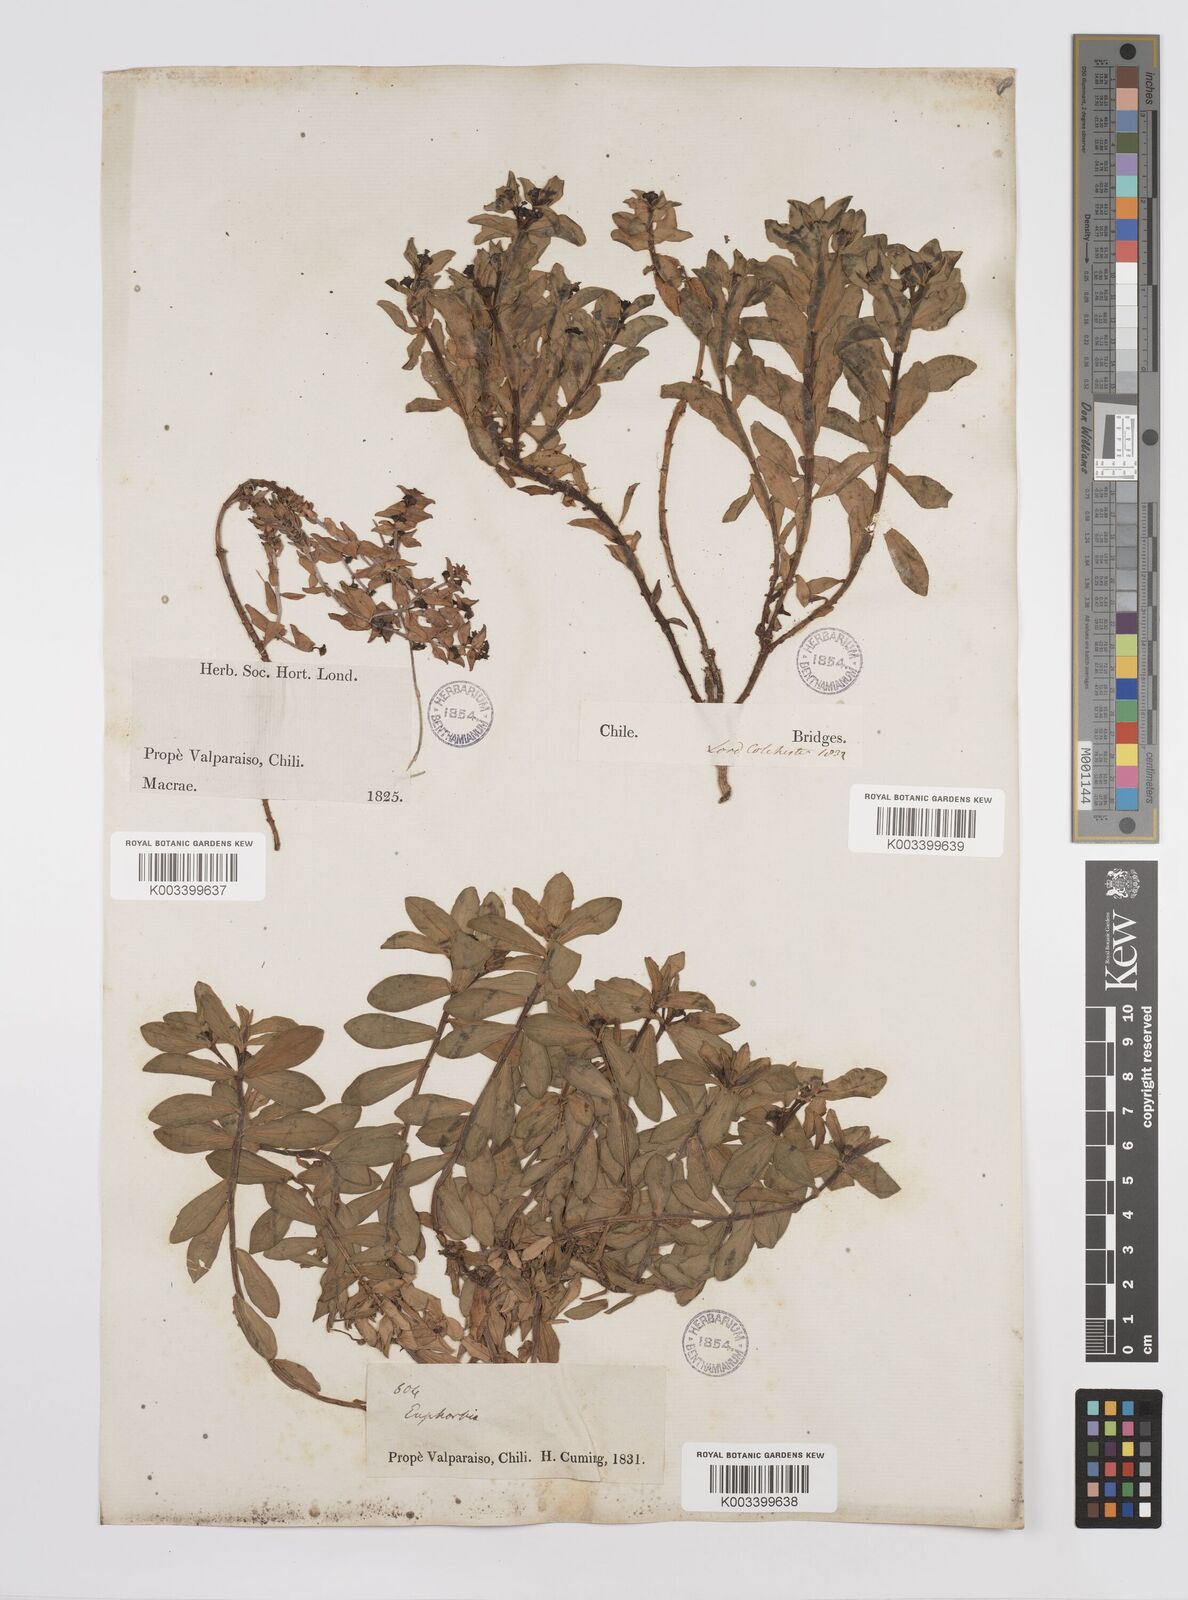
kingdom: Plantae
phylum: Tracheophyta
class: Magnoliopsida
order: Malpighiales
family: Euphorbiaceae
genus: Euphorbia
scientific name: Euphorbia portulacoides
